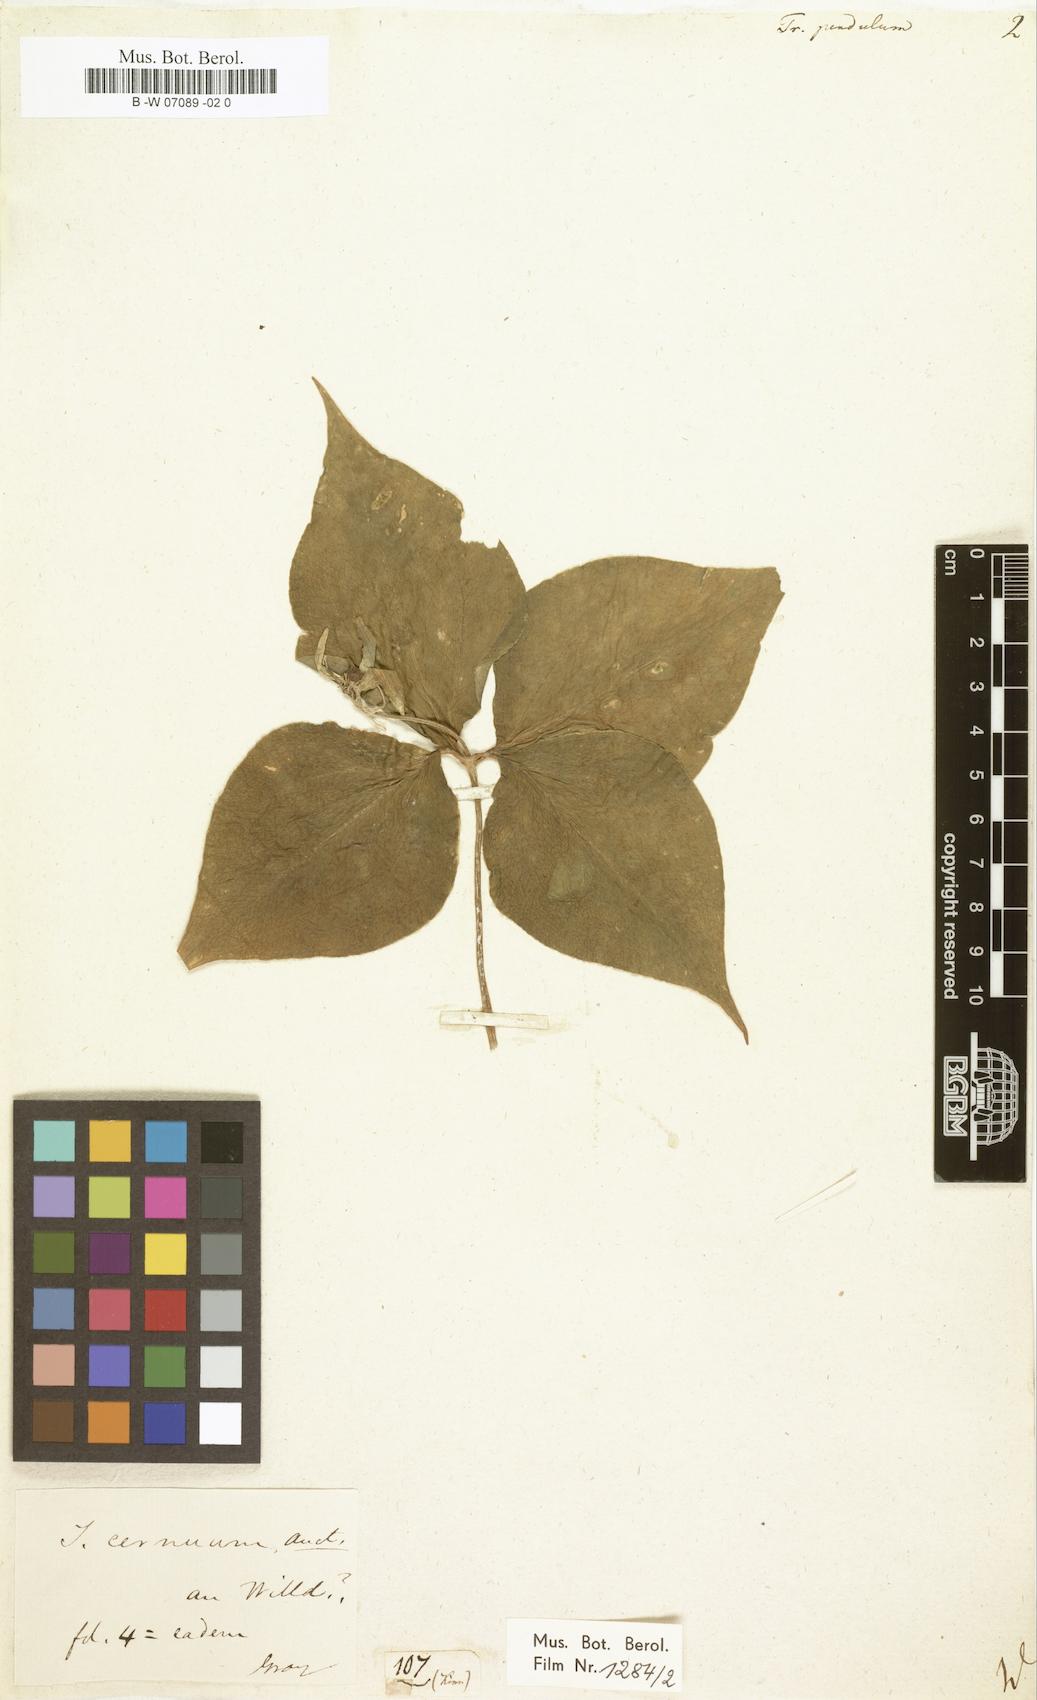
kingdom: Plantae
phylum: Tracheophyta
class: Liliopsida
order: Liliales
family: Melanthiaceae
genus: Trillium
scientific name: Trillium erectum
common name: Purple trillium
